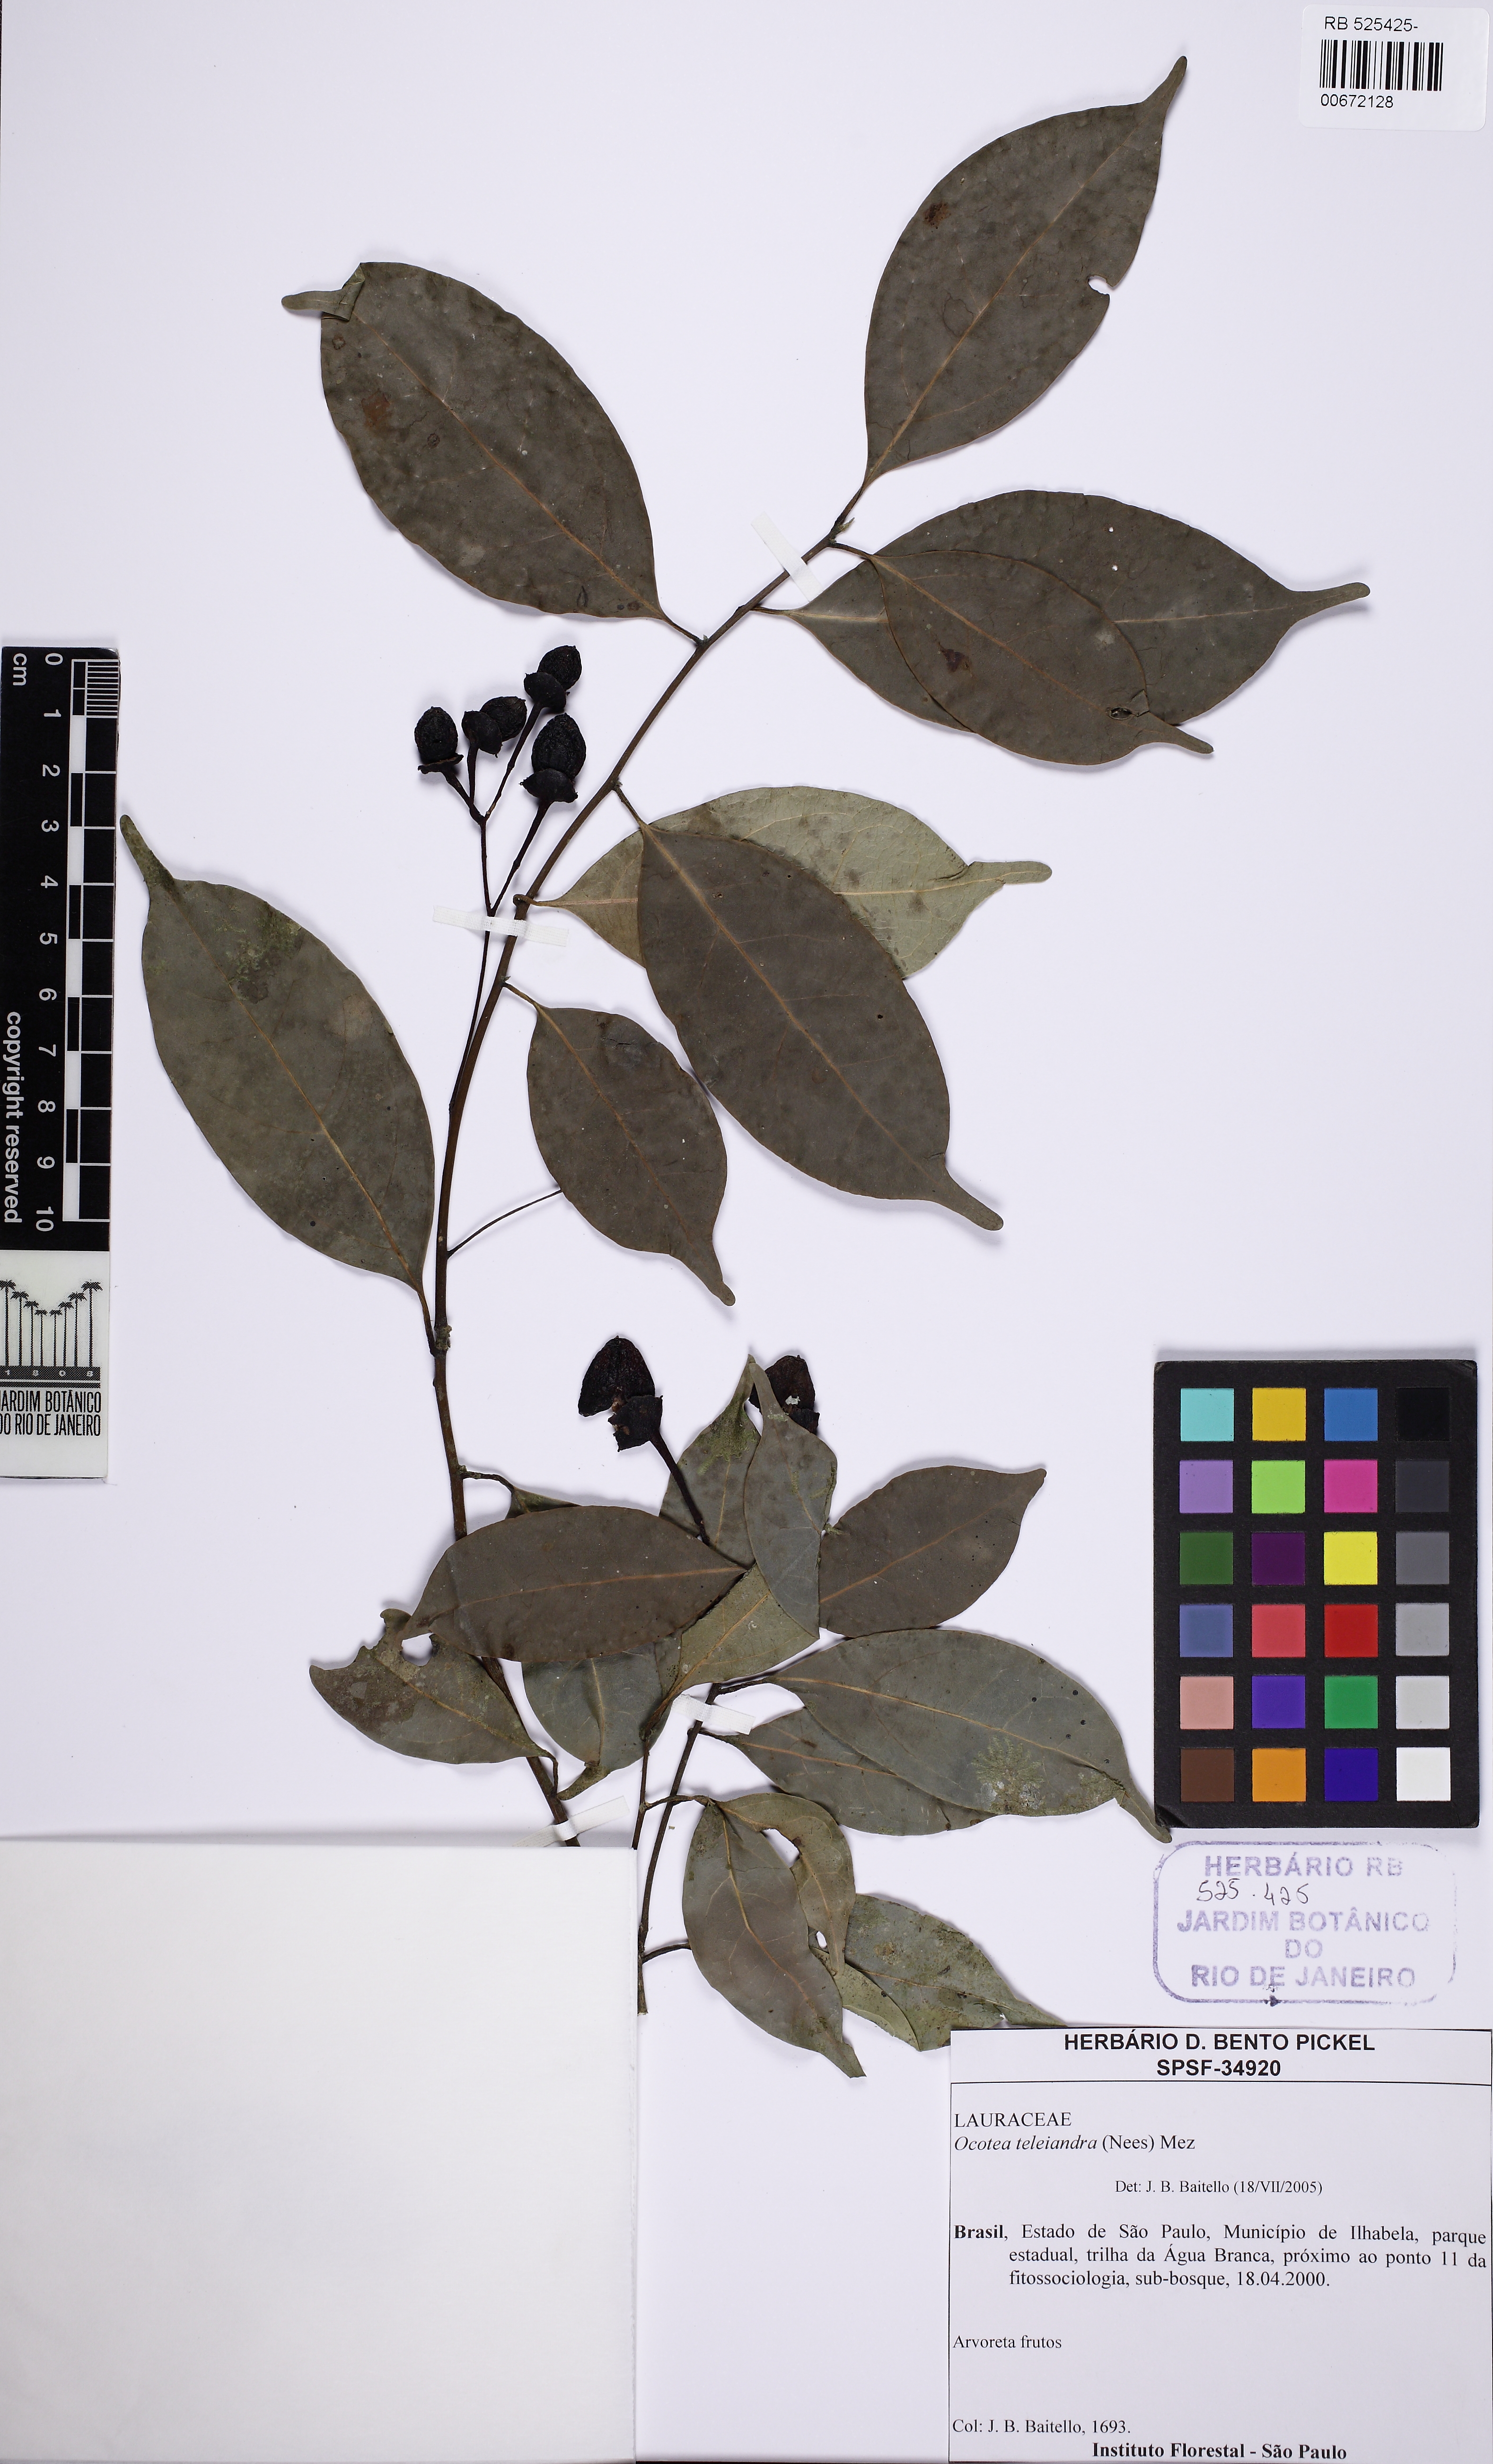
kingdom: Plantae
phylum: Tracheophyta
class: Magnoliopsida
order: Laurales
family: Lauraceae
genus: Ocotea
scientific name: Ocotea teleiandra
